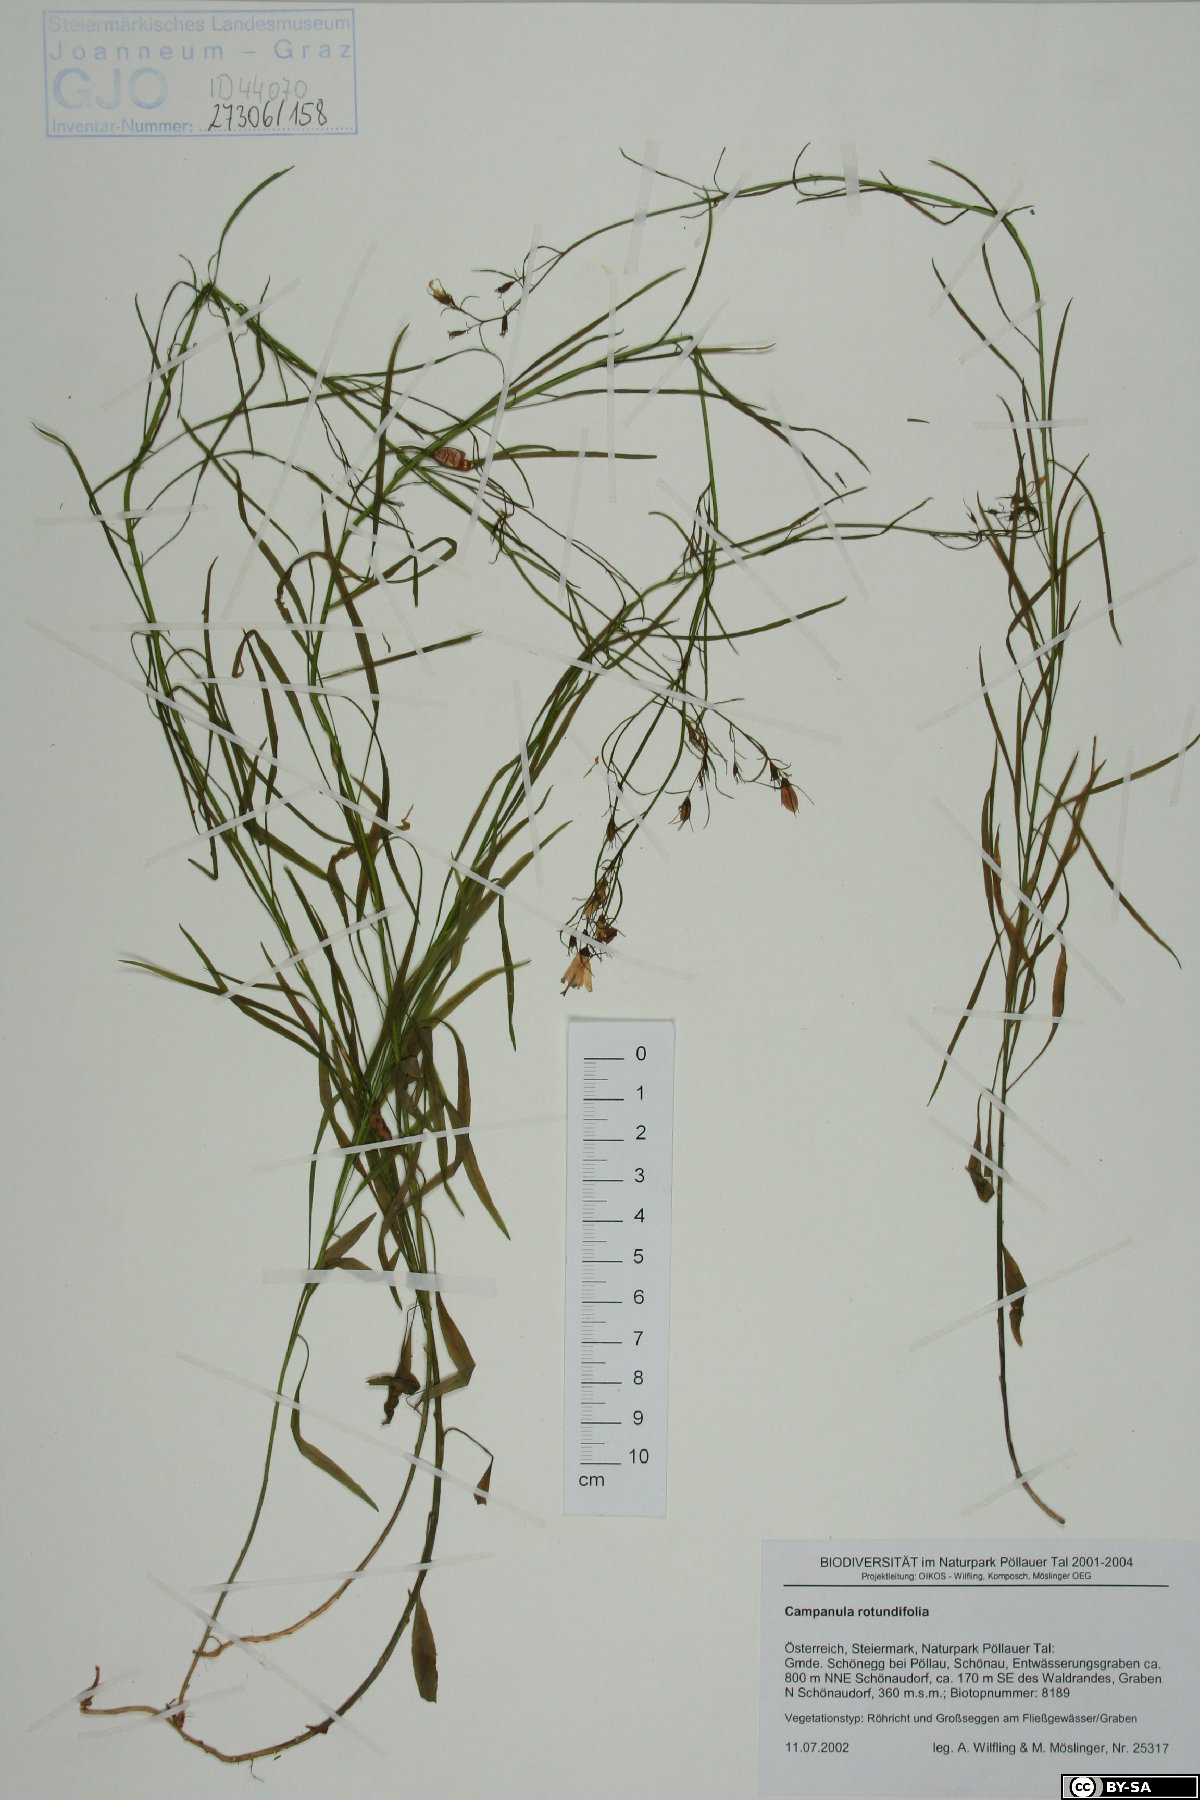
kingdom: Plantae
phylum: Tracheophyta
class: Magnoliopsida
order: Asterales
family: Campanulaceae
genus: Campanula
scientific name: Campanula rotundifolia
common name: Harebell
